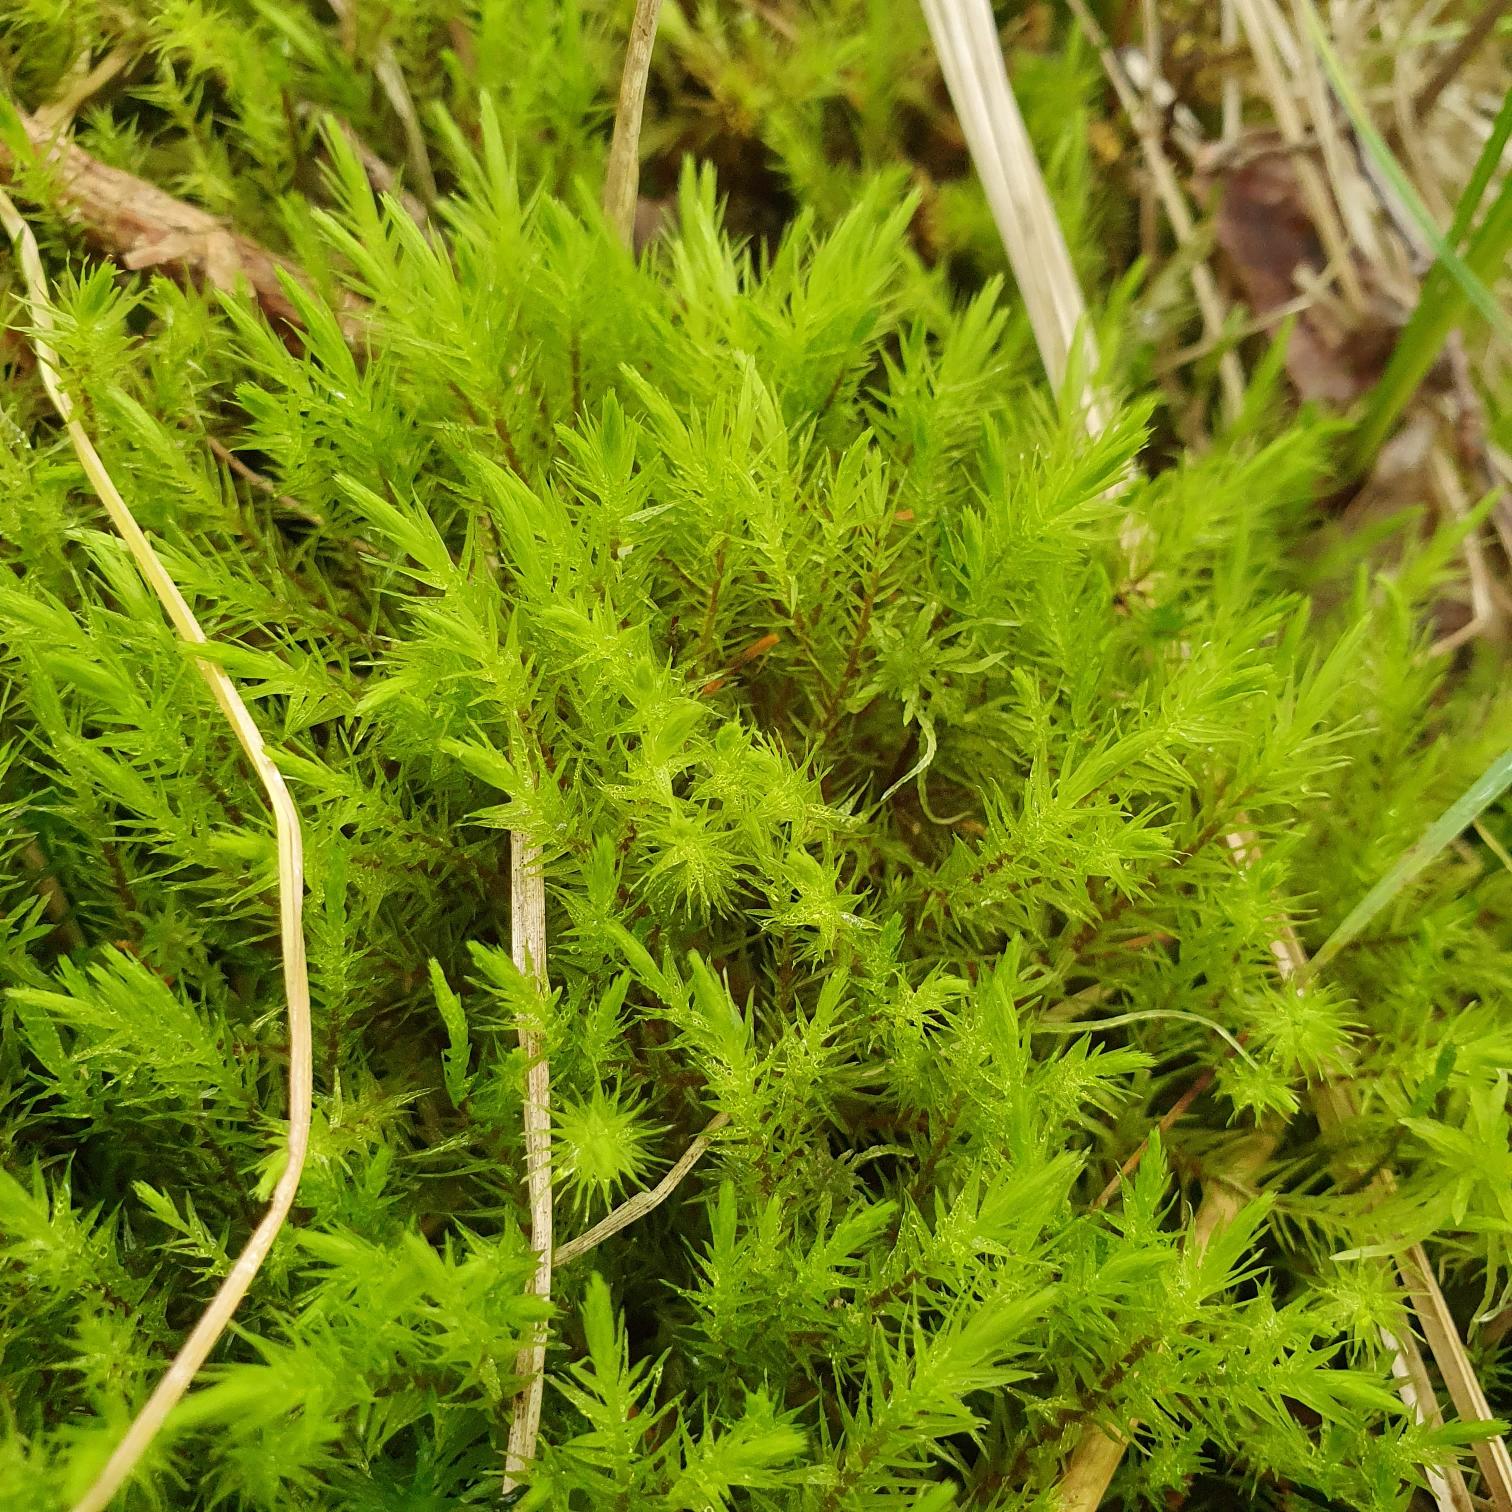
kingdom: Plantae
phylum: Bryophyta
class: Bryopsida
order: Aulacomniales
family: Aulacomniaceae
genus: Aulacomnium
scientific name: Aulacomnium palustre
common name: Almindelig filtmos
